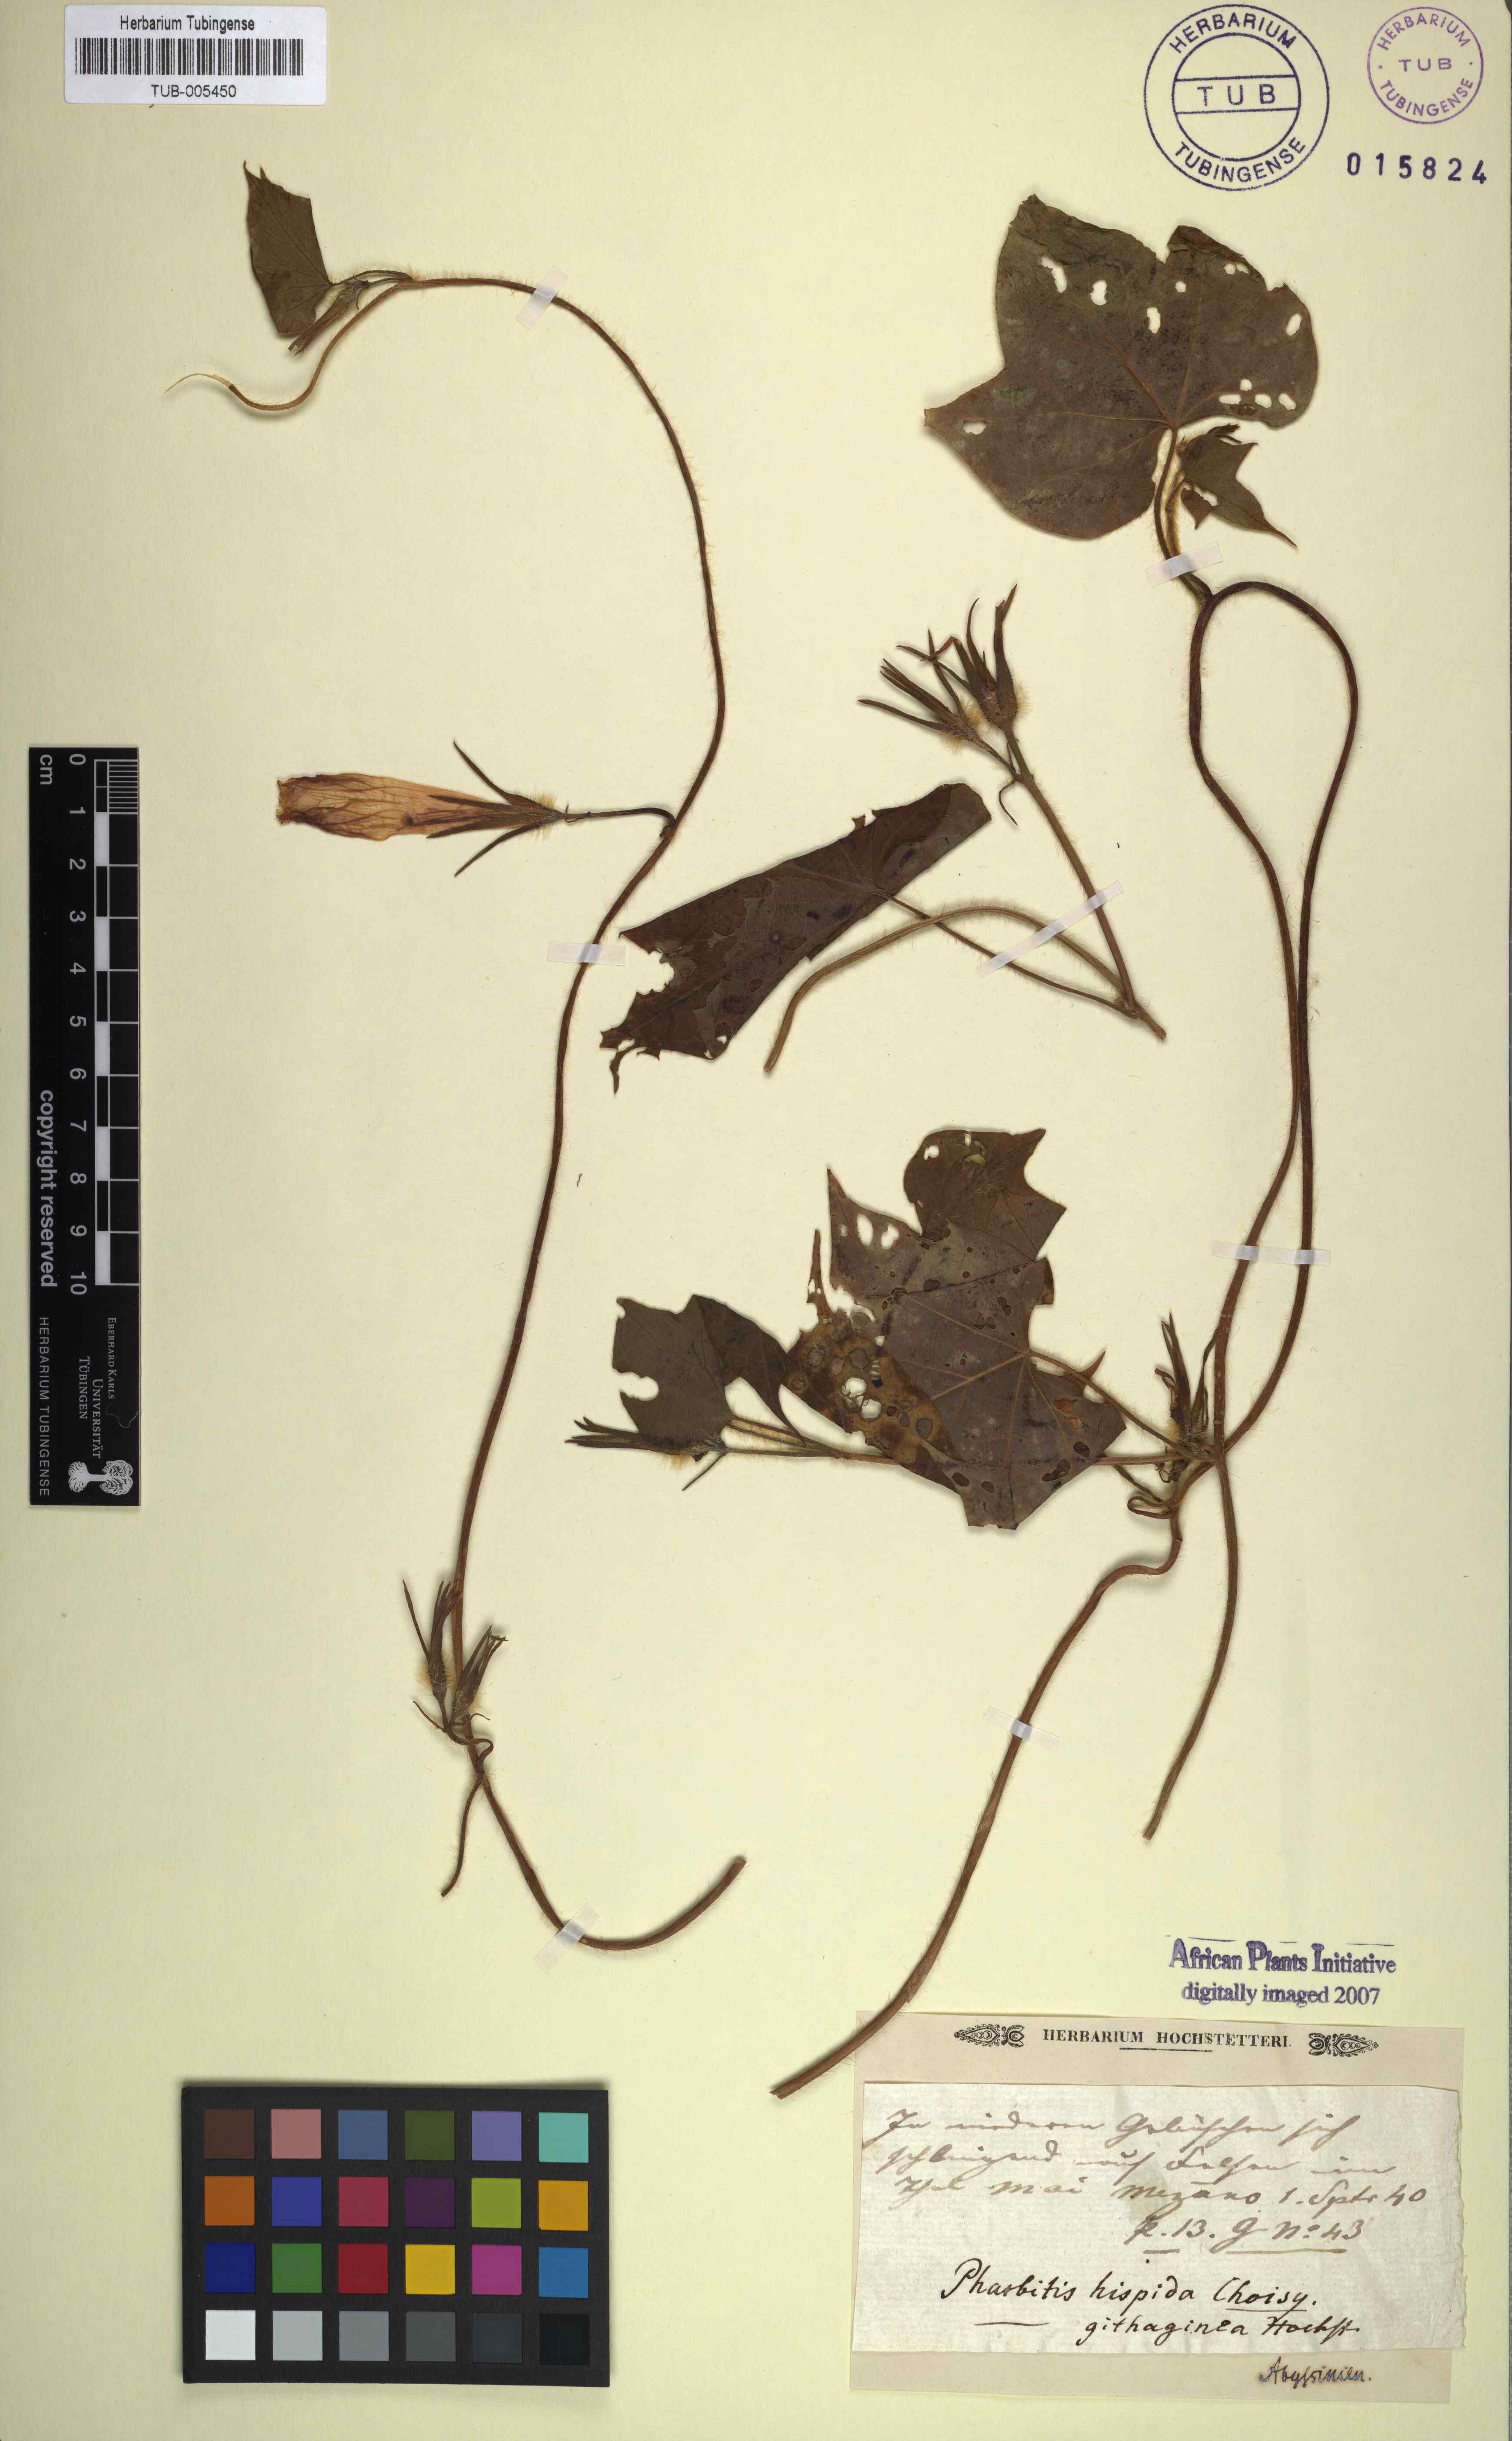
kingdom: Plantae
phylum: Tracheophyta
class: Magnoliopsida
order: Solanales
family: Convolvulaceae
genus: Ipomoea
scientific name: Ipomoea
